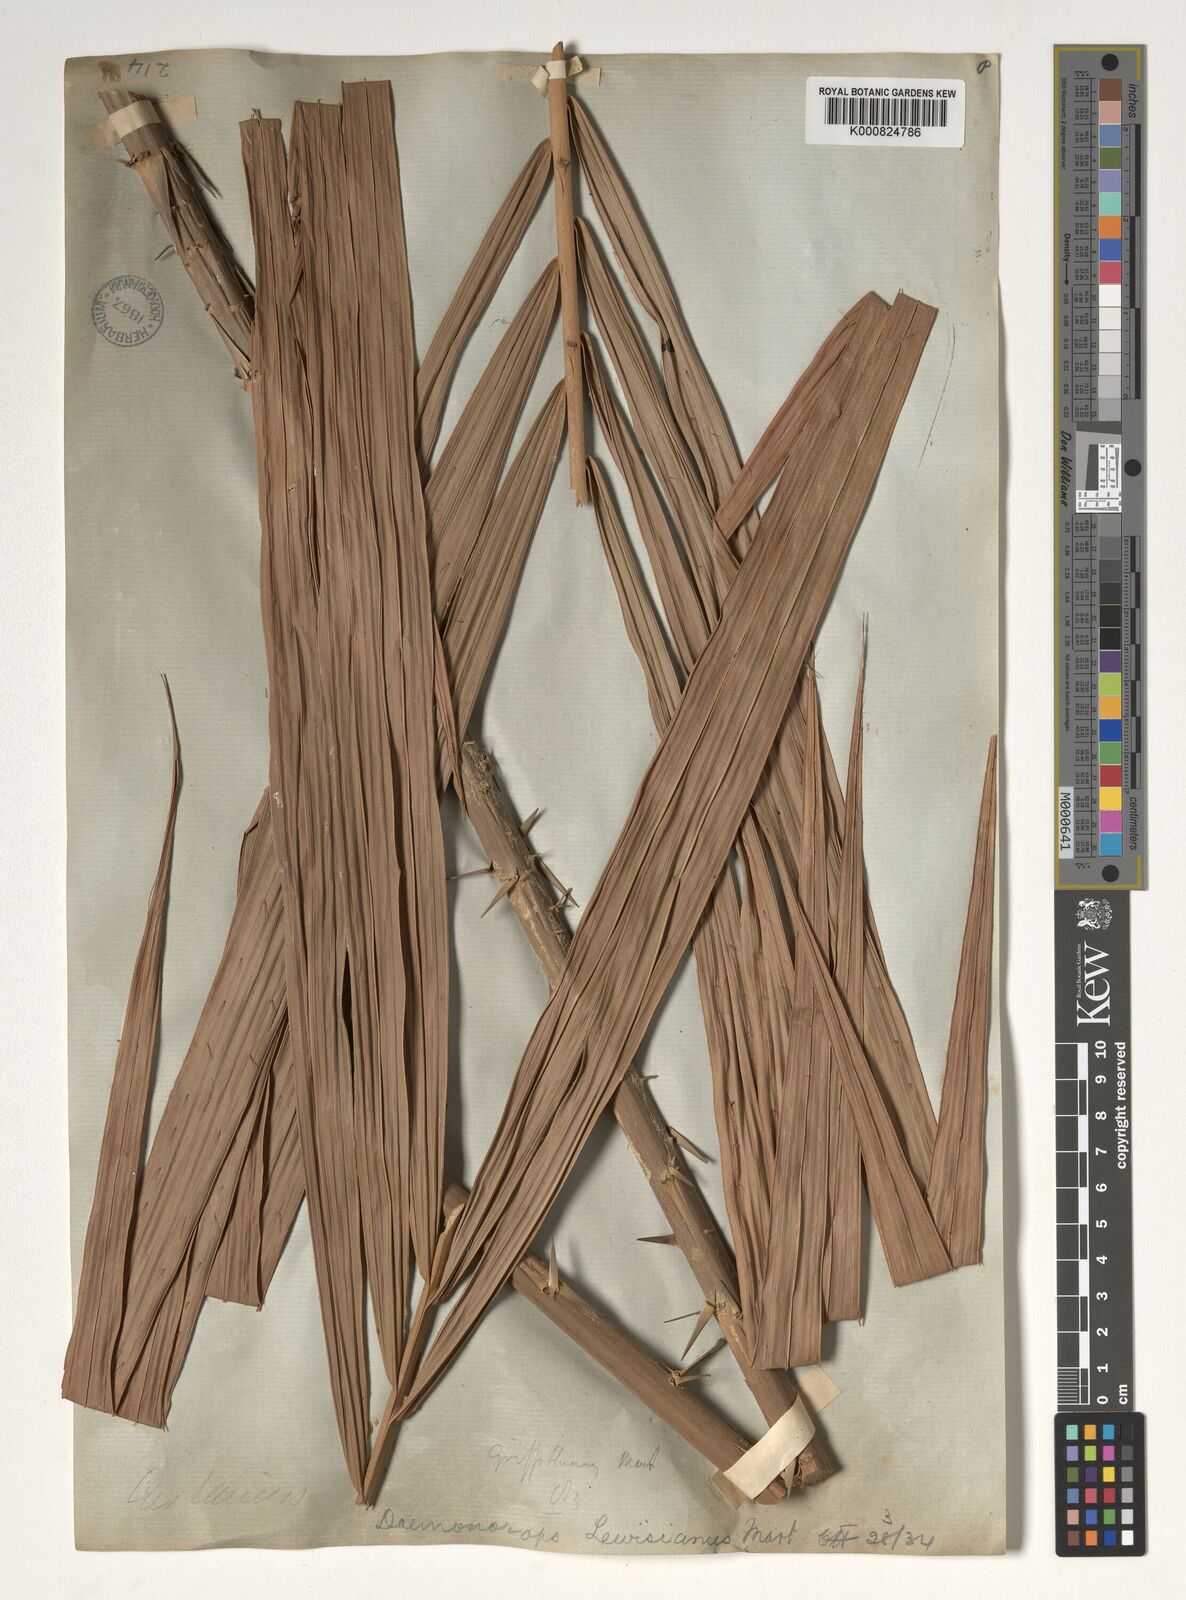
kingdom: Plantae
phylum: Tracheophyta
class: Liliopsida
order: Arecales
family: Arecaceae
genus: Calamus
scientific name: Calamus melanochaetes
